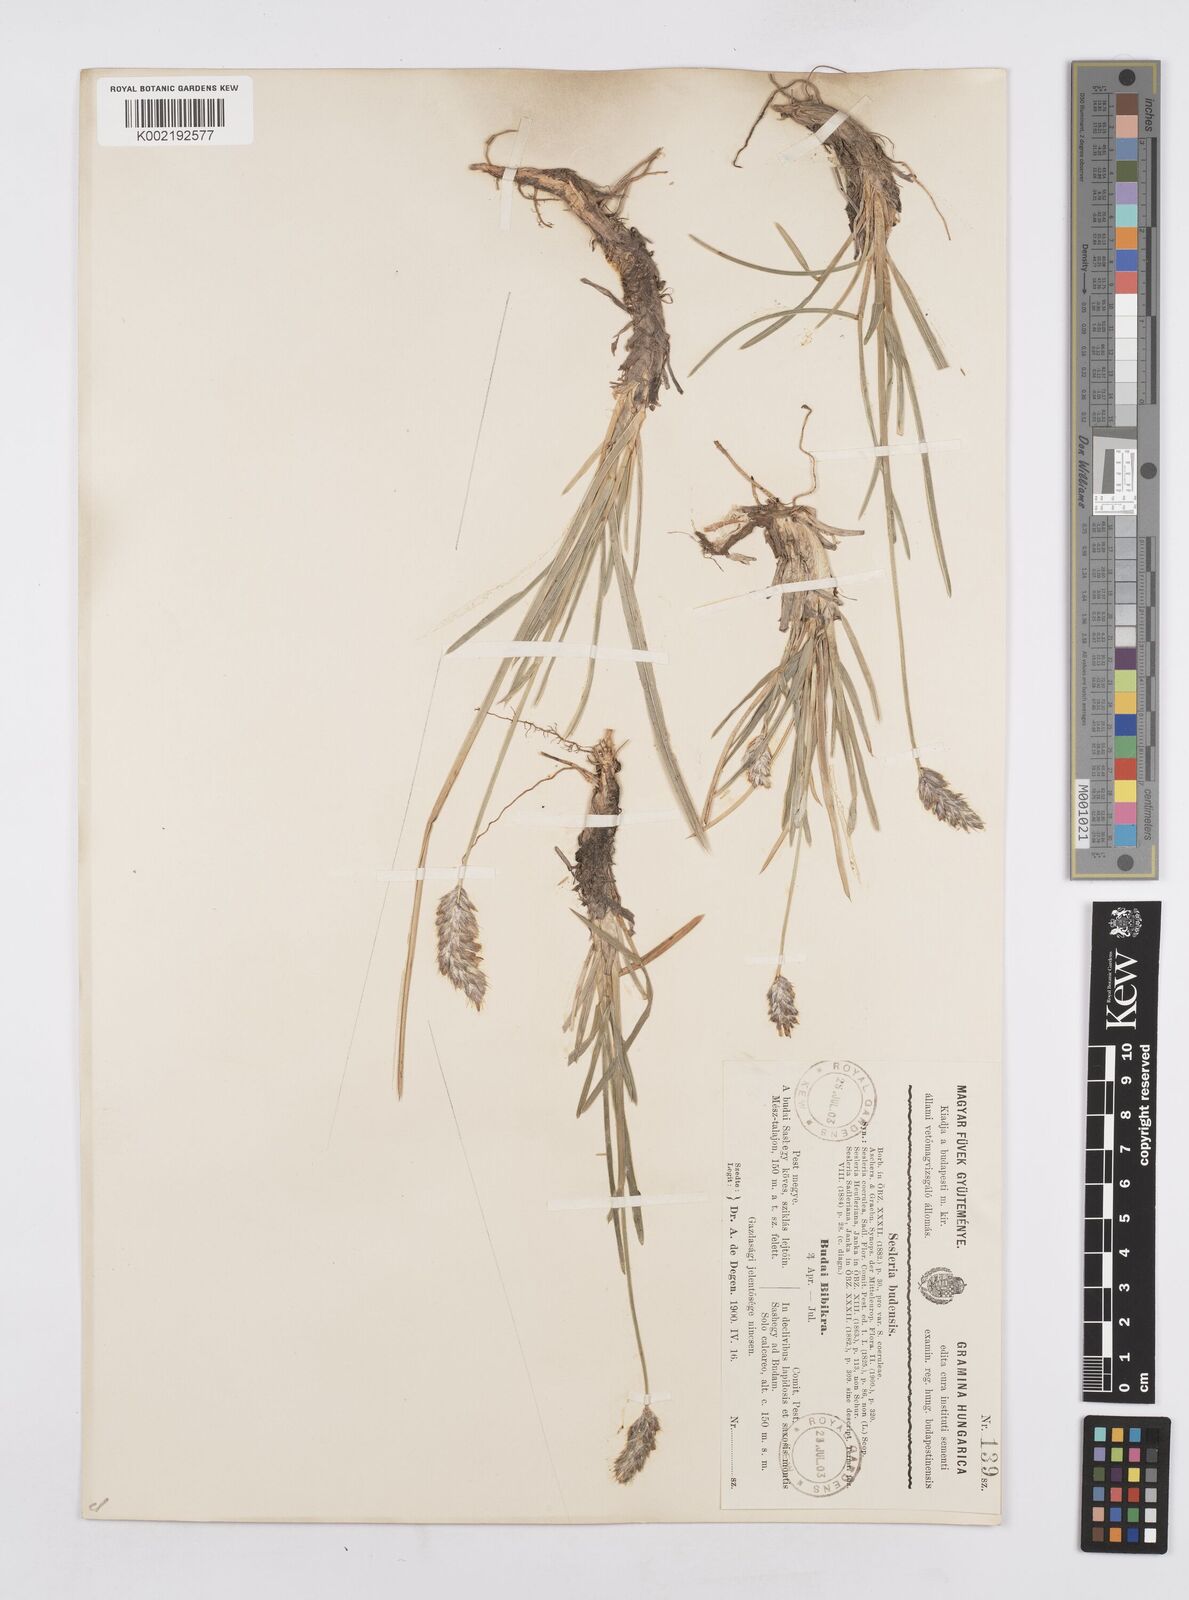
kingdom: Plantae
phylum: Tracheophyta
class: Liliopsida
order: Poales
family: Poaceae
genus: Sesleria
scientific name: Sesleria sadleriana
